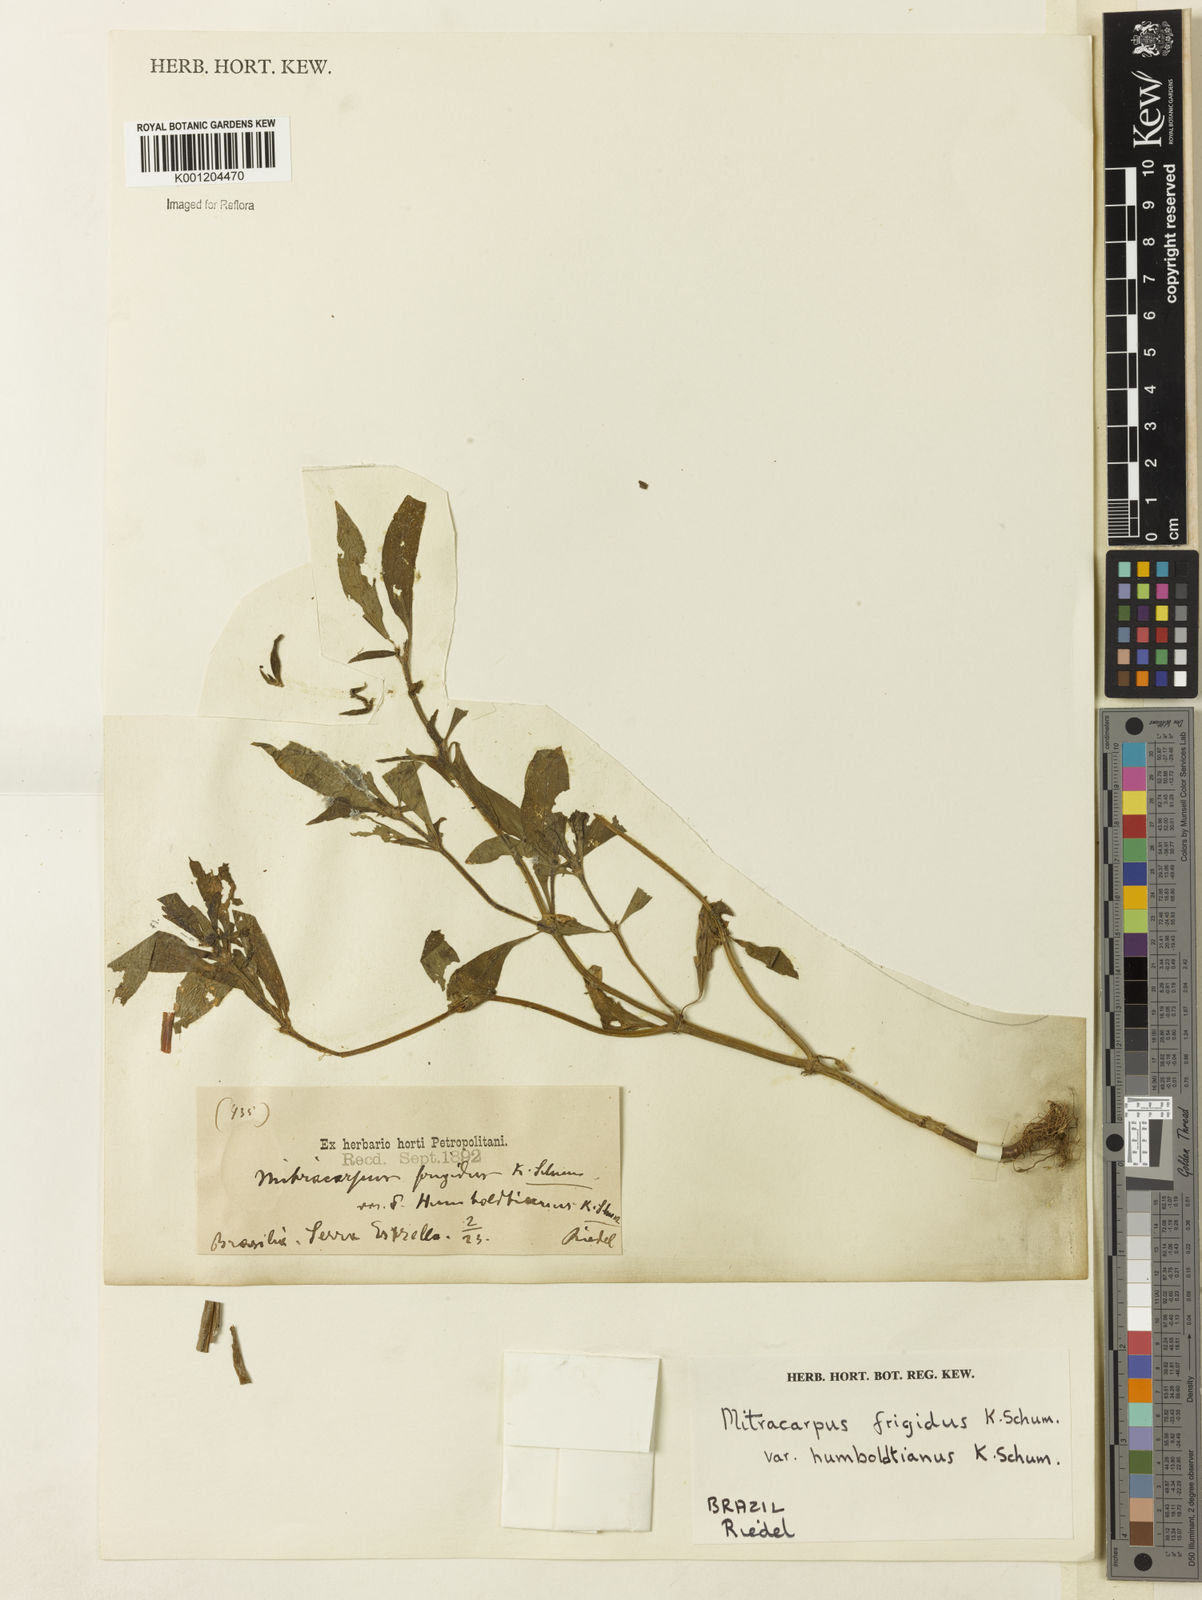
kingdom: Plantae
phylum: Tracheophyta
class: Magnoliopsida
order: Gentianales
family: Rubiaceae
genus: Mitracarpus
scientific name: Mitracarpus frigidus
